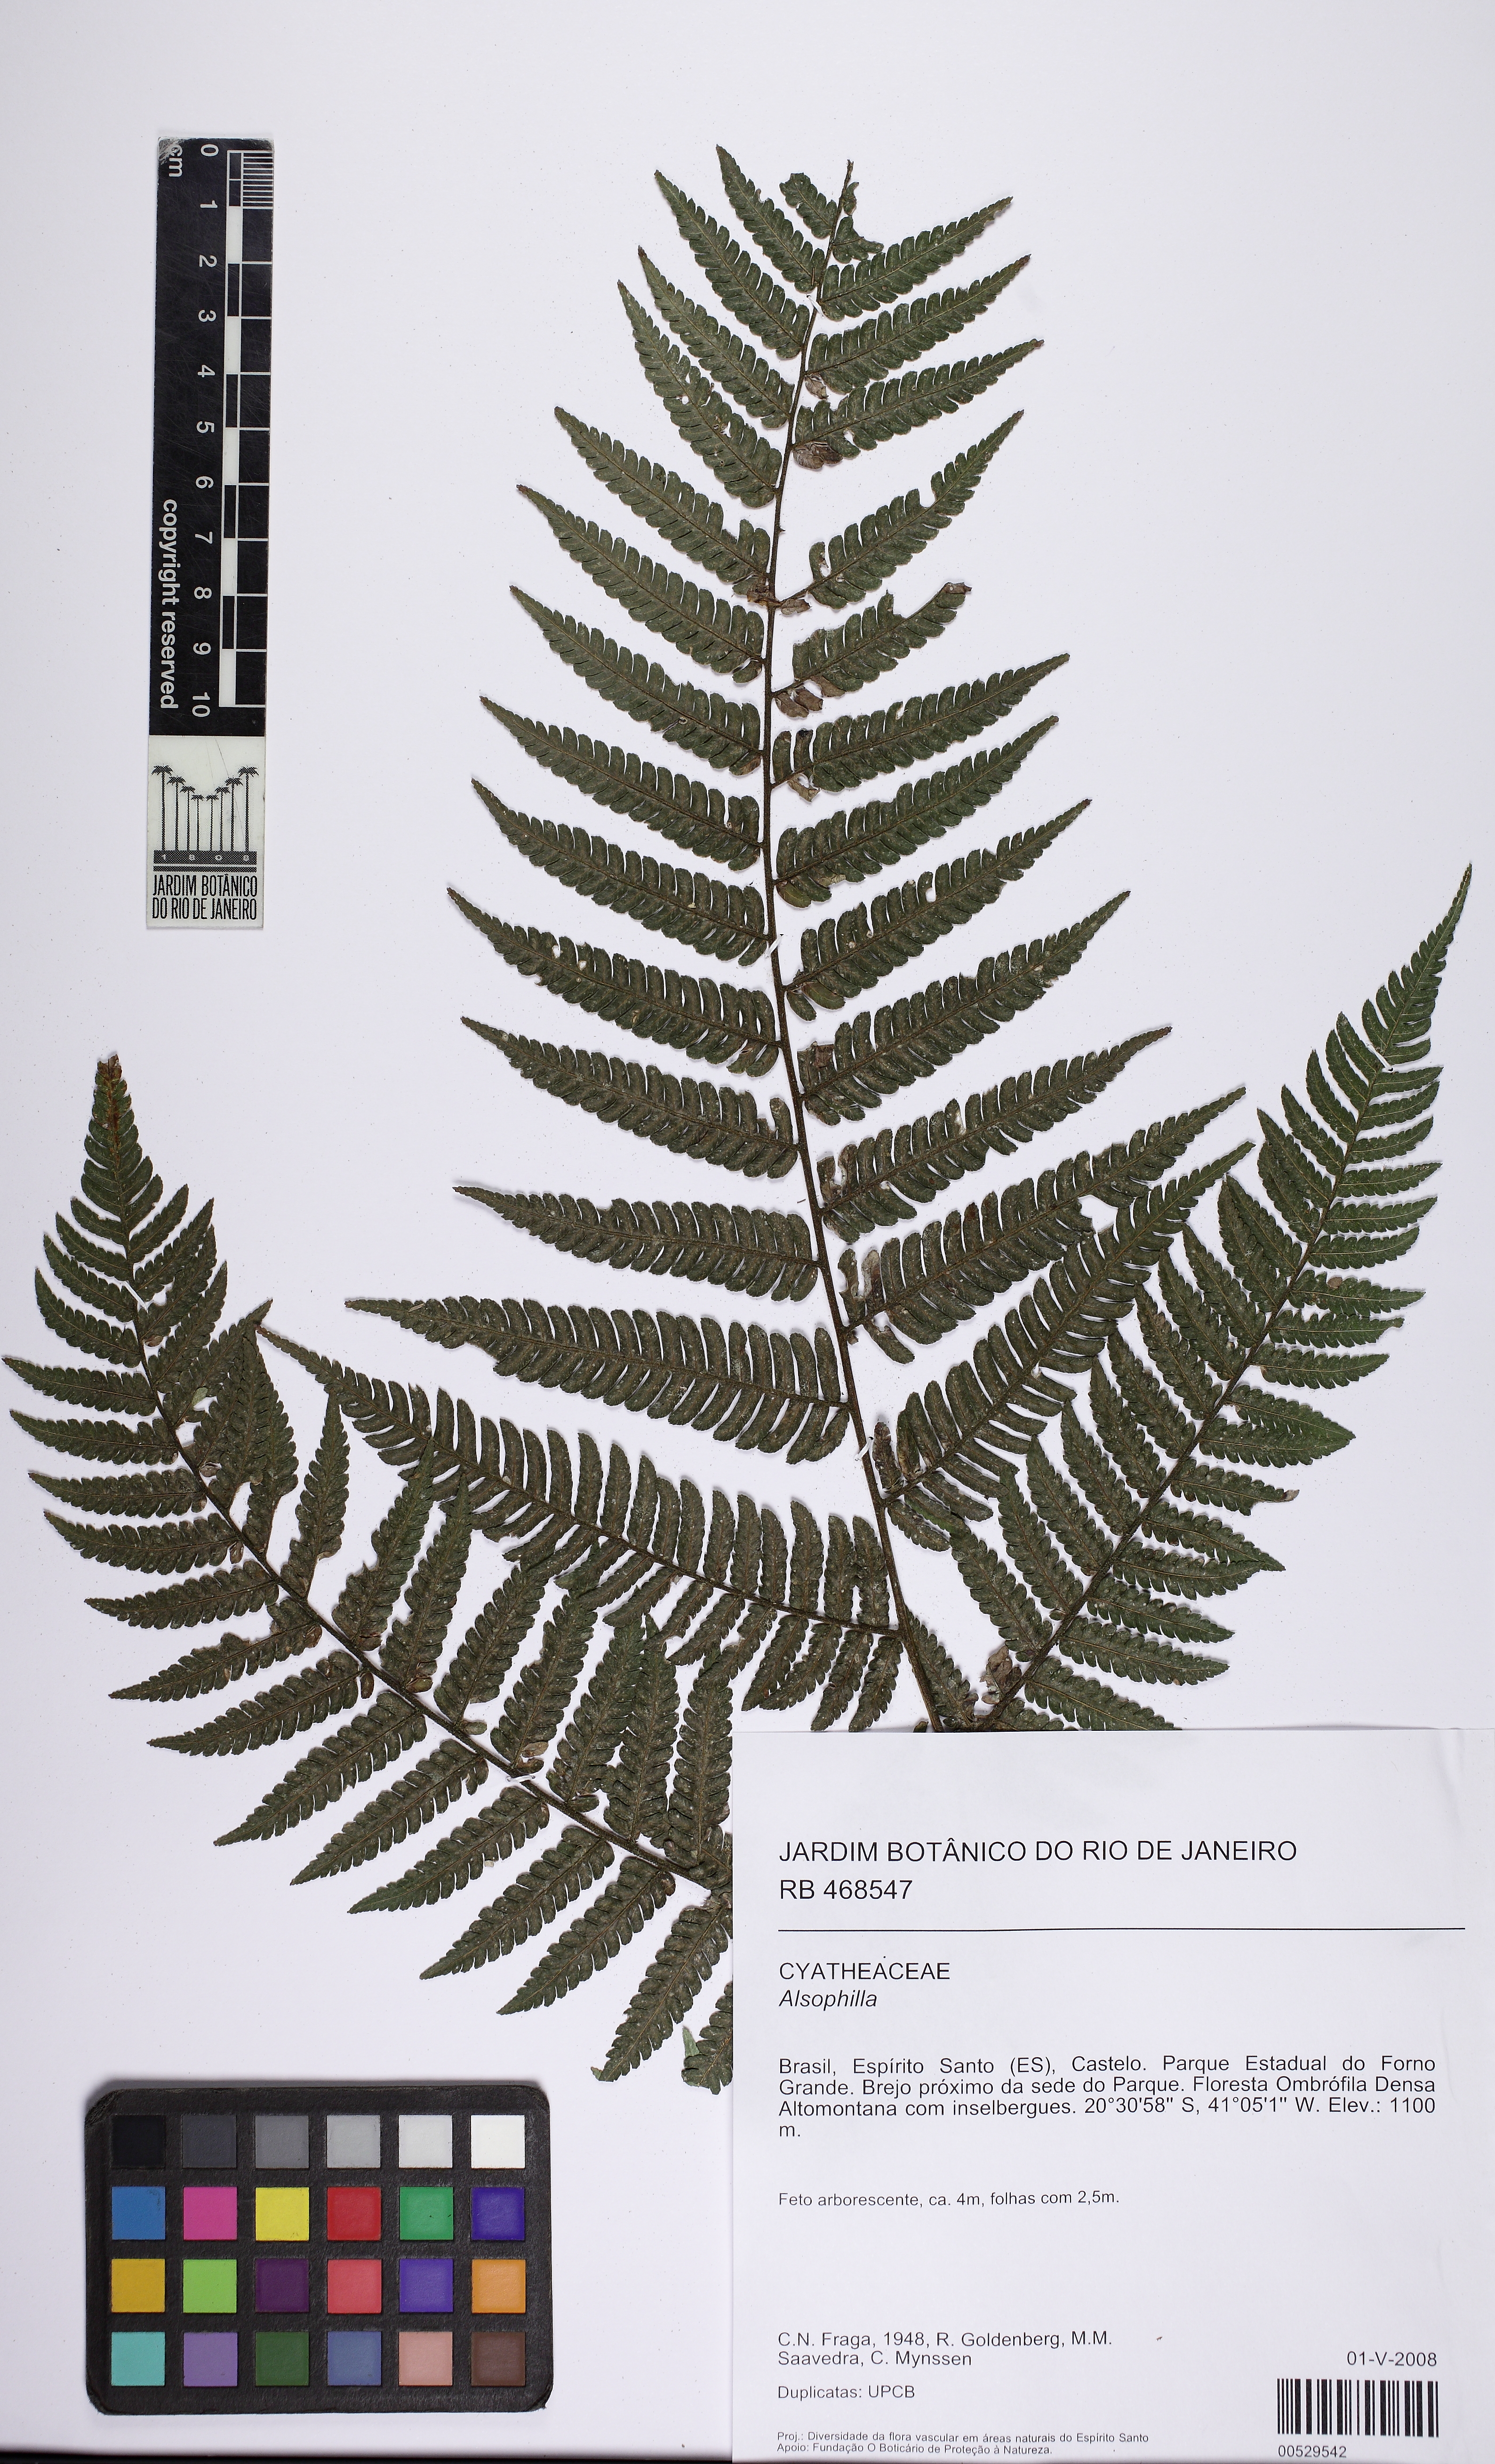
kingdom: Plantae
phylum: Tracheophyta
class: Polypodiopsida
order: Cyatheales
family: Cyatheaceae
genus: Alsophila
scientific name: Alsophila
